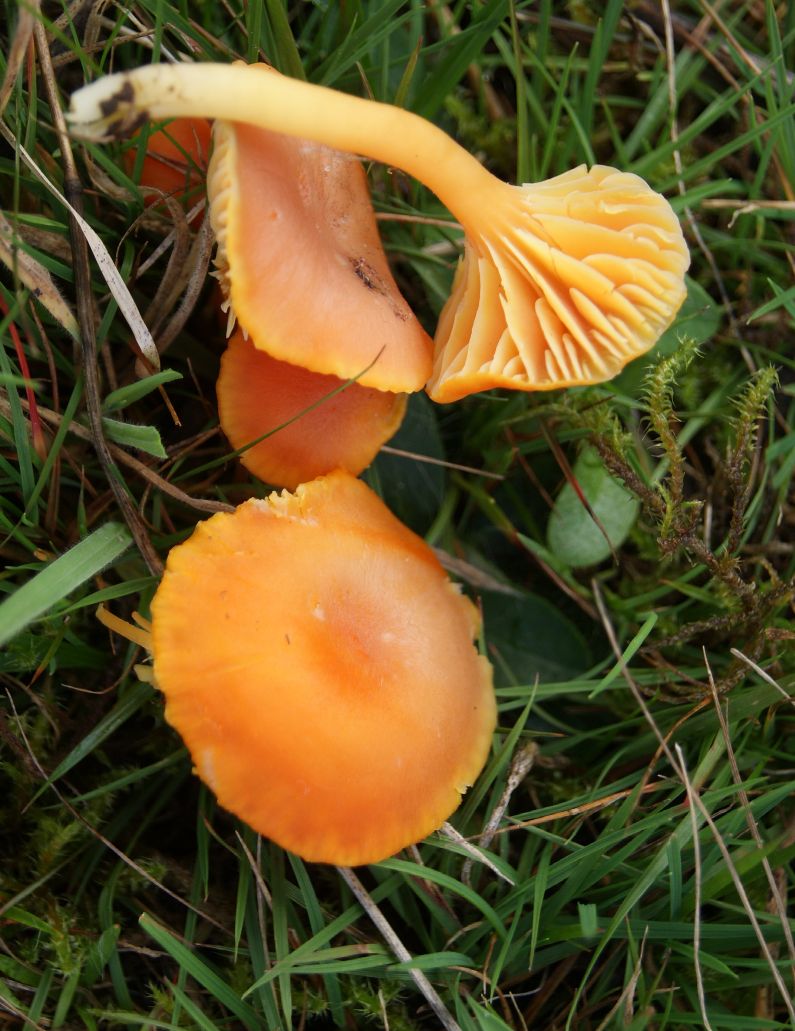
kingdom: Fungi
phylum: Basidiomycota
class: Agaricomycetes
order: Agaricales
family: Hygrophoraceae
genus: Hygrocybe
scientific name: Hygrocybe reidii
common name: honning-vokshat
